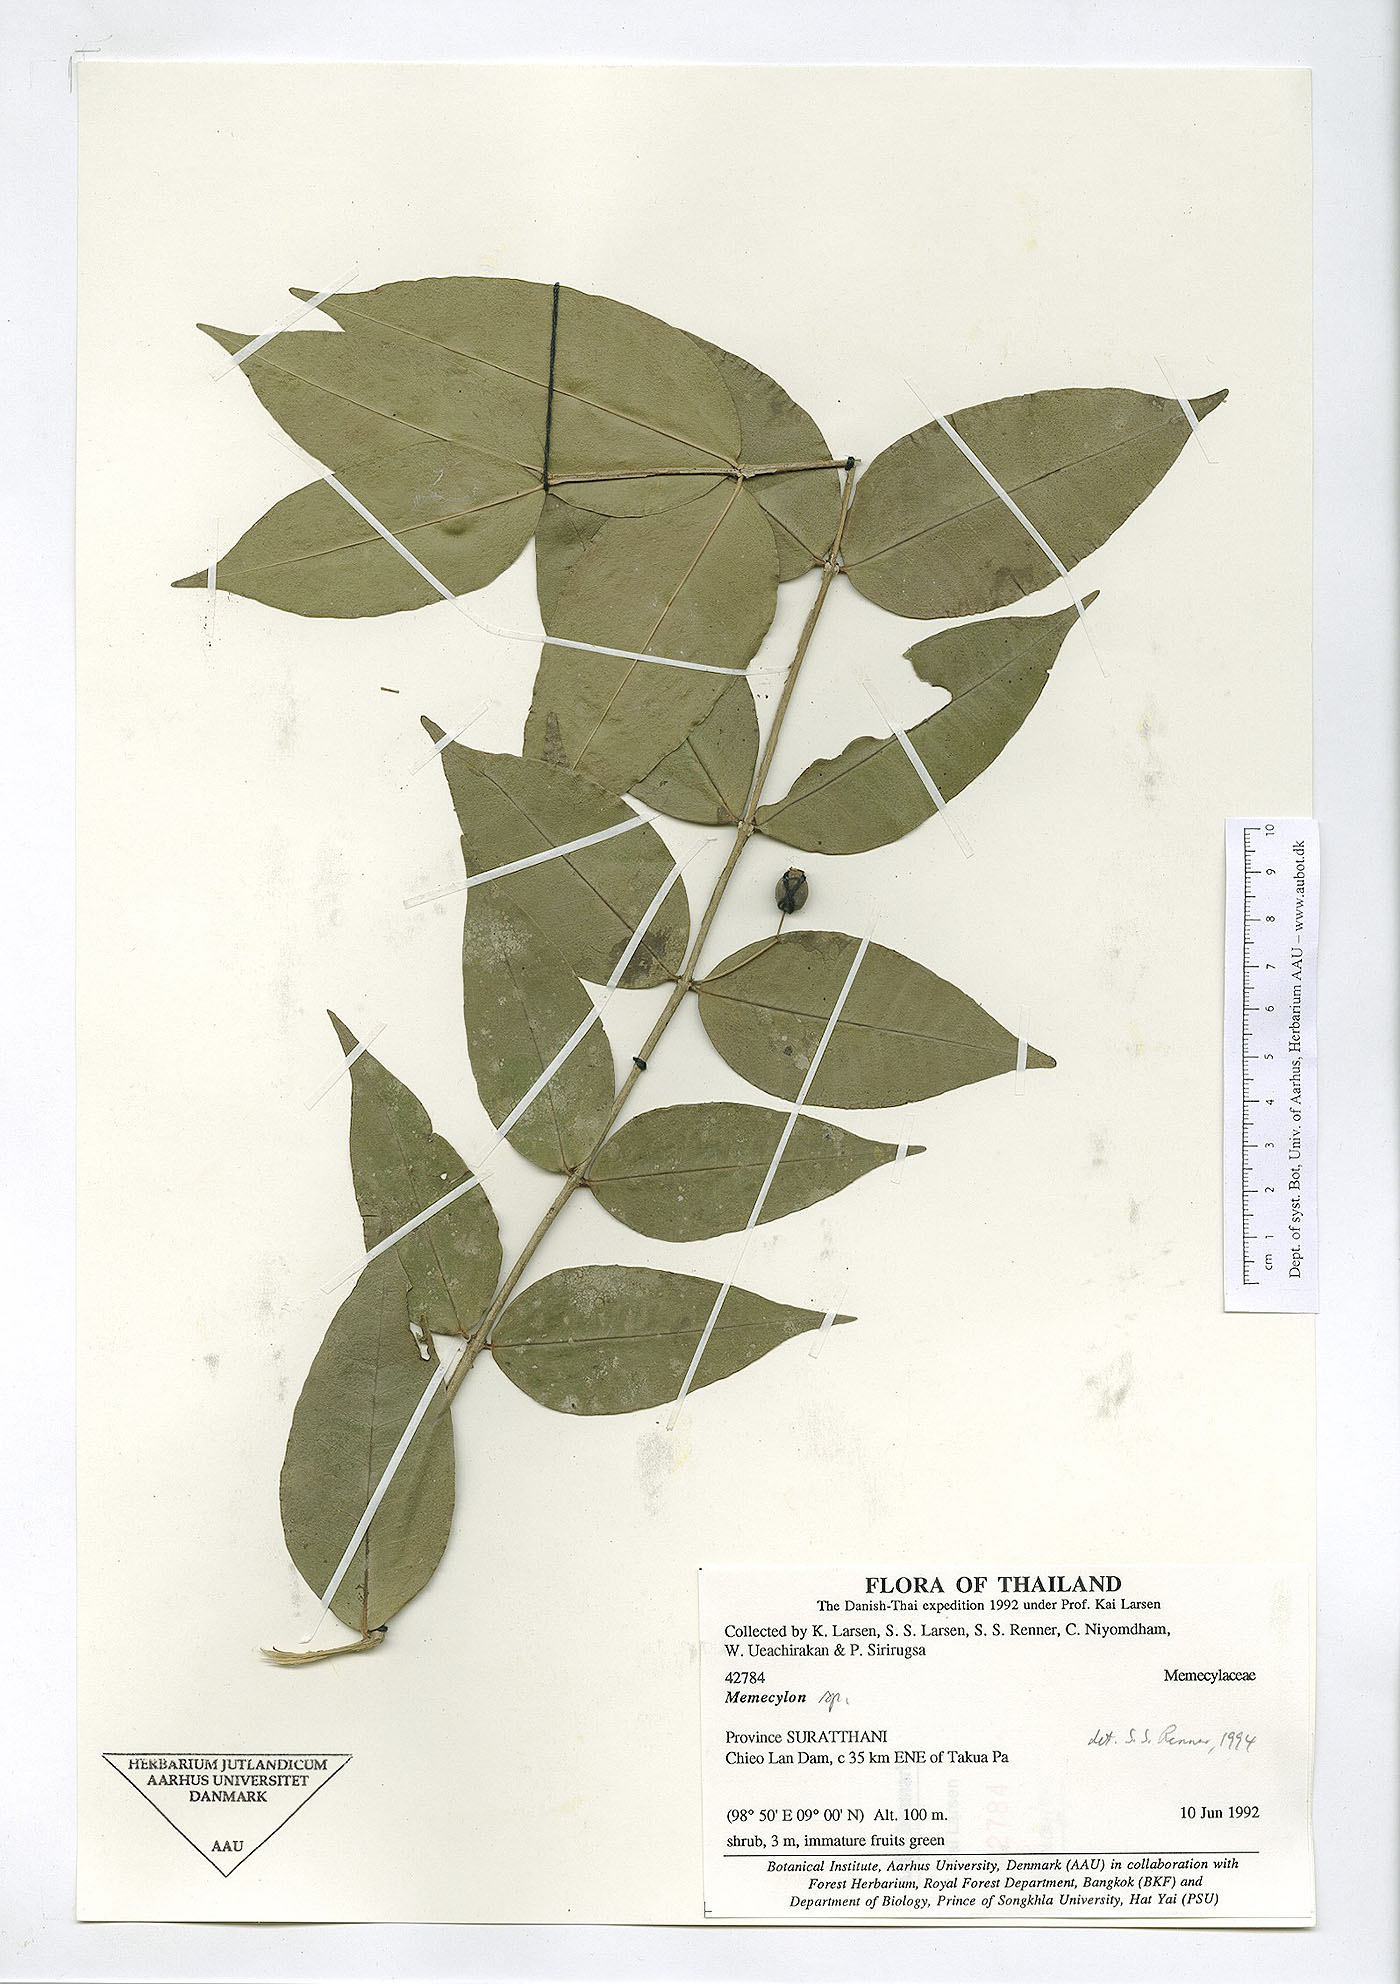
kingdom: Plantae
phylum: Tracheophyta
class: Magnoliopsida
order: Myrtales
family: Melastomataceae
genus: Memecylon
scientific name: Memecylon fruticosum
